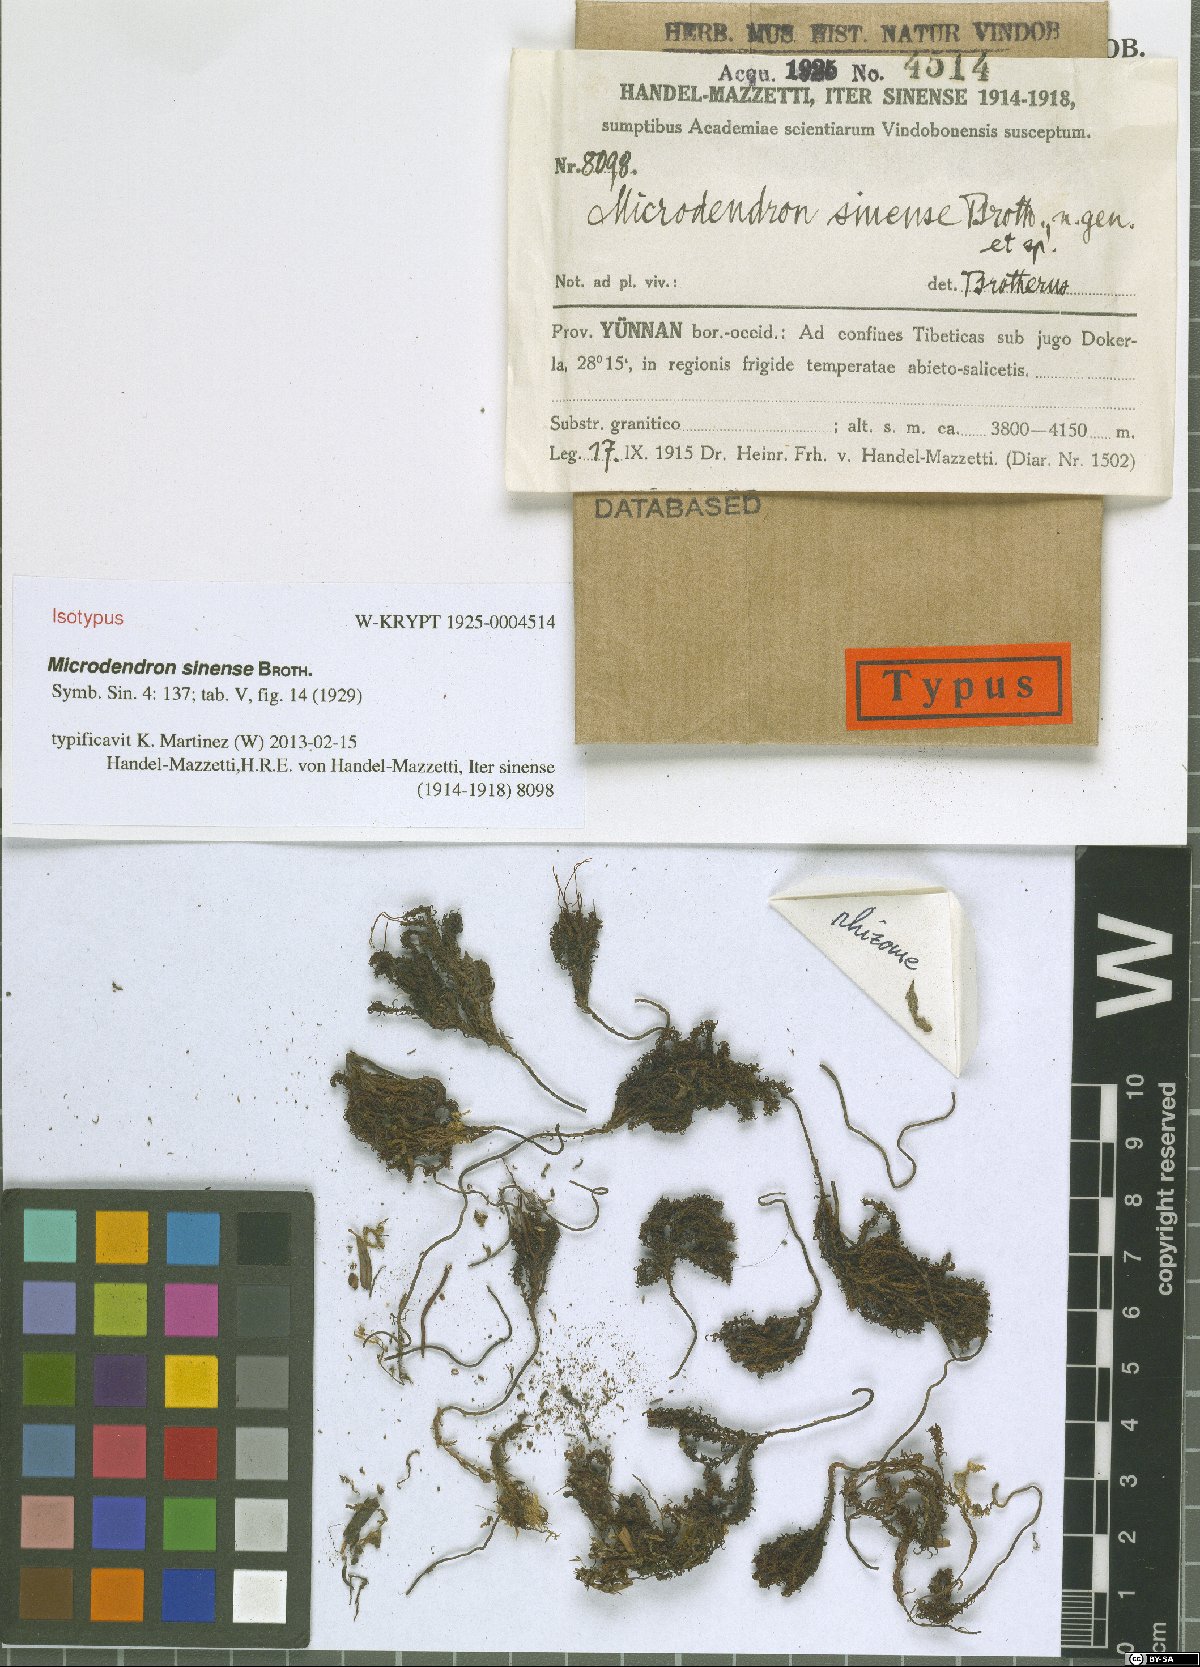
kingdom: Plantae
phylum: Bryophyta
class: Polytrichopsida
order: Polytrichales
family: Polytrichaceae
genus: Pogonatum
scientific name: Pogonatum sinense
